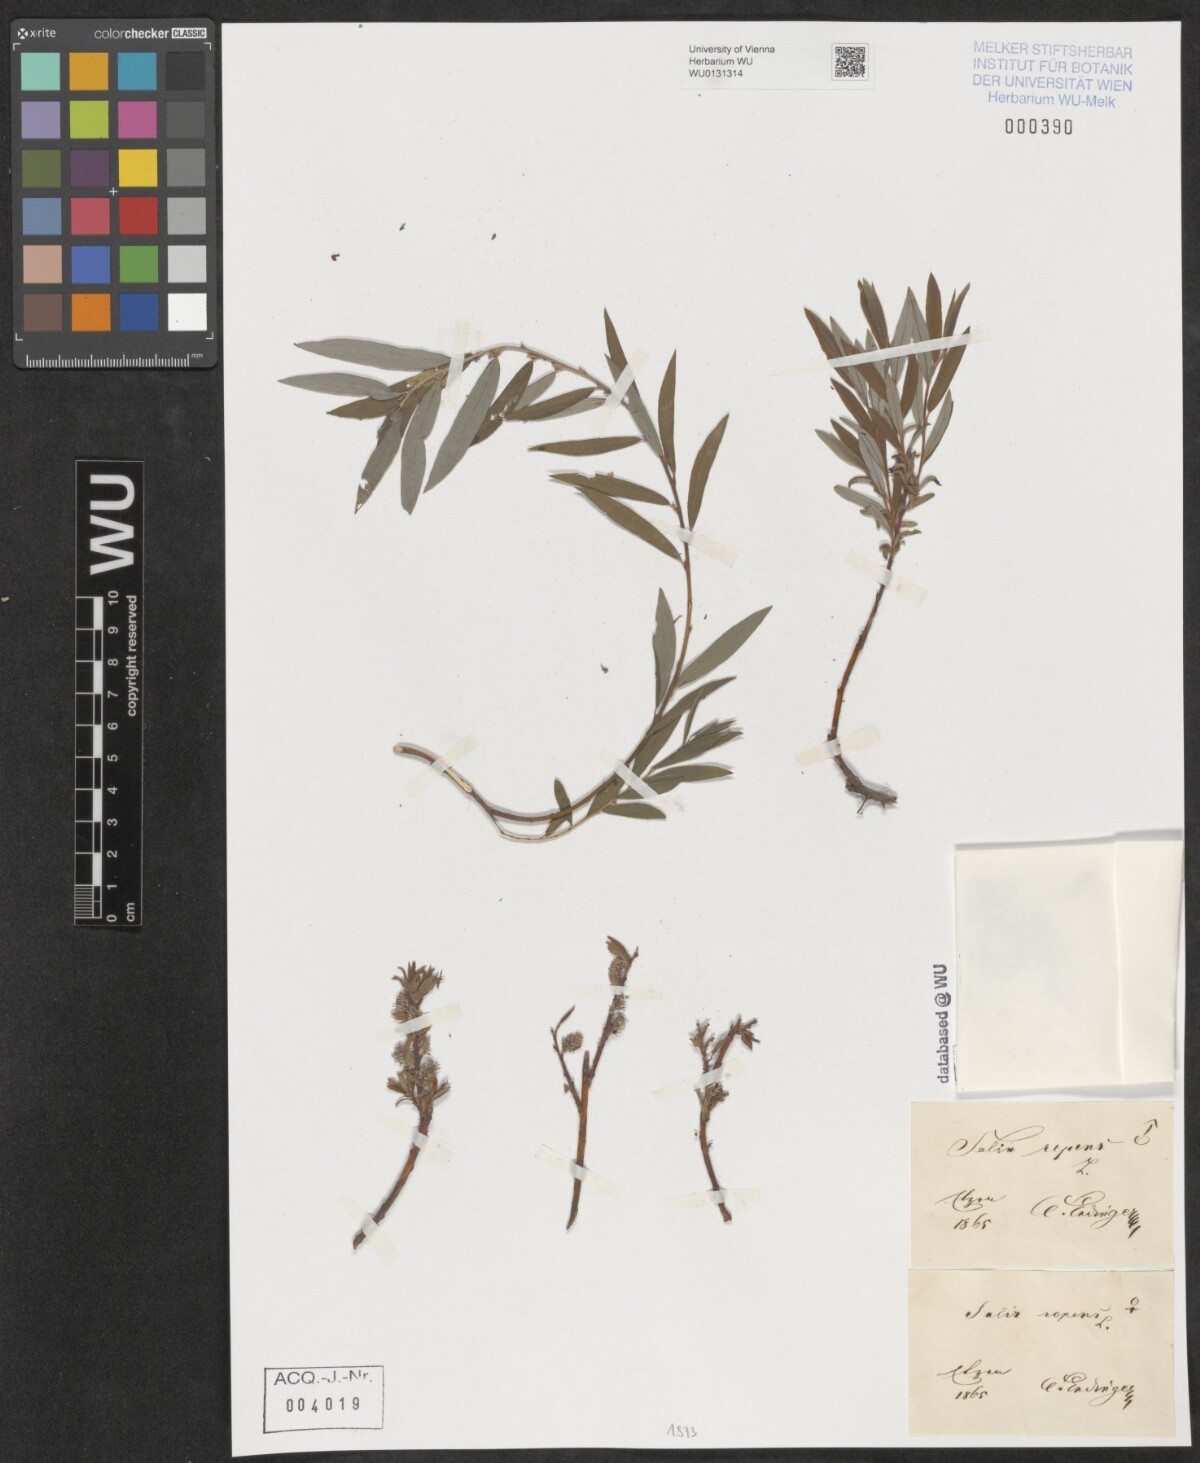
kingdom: Plantae
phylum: Tracheophyta
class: Magnoliopsida
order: Malpighiales
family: Salicaceae
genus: Salix
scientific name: Salix repens
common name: Creeping willow
